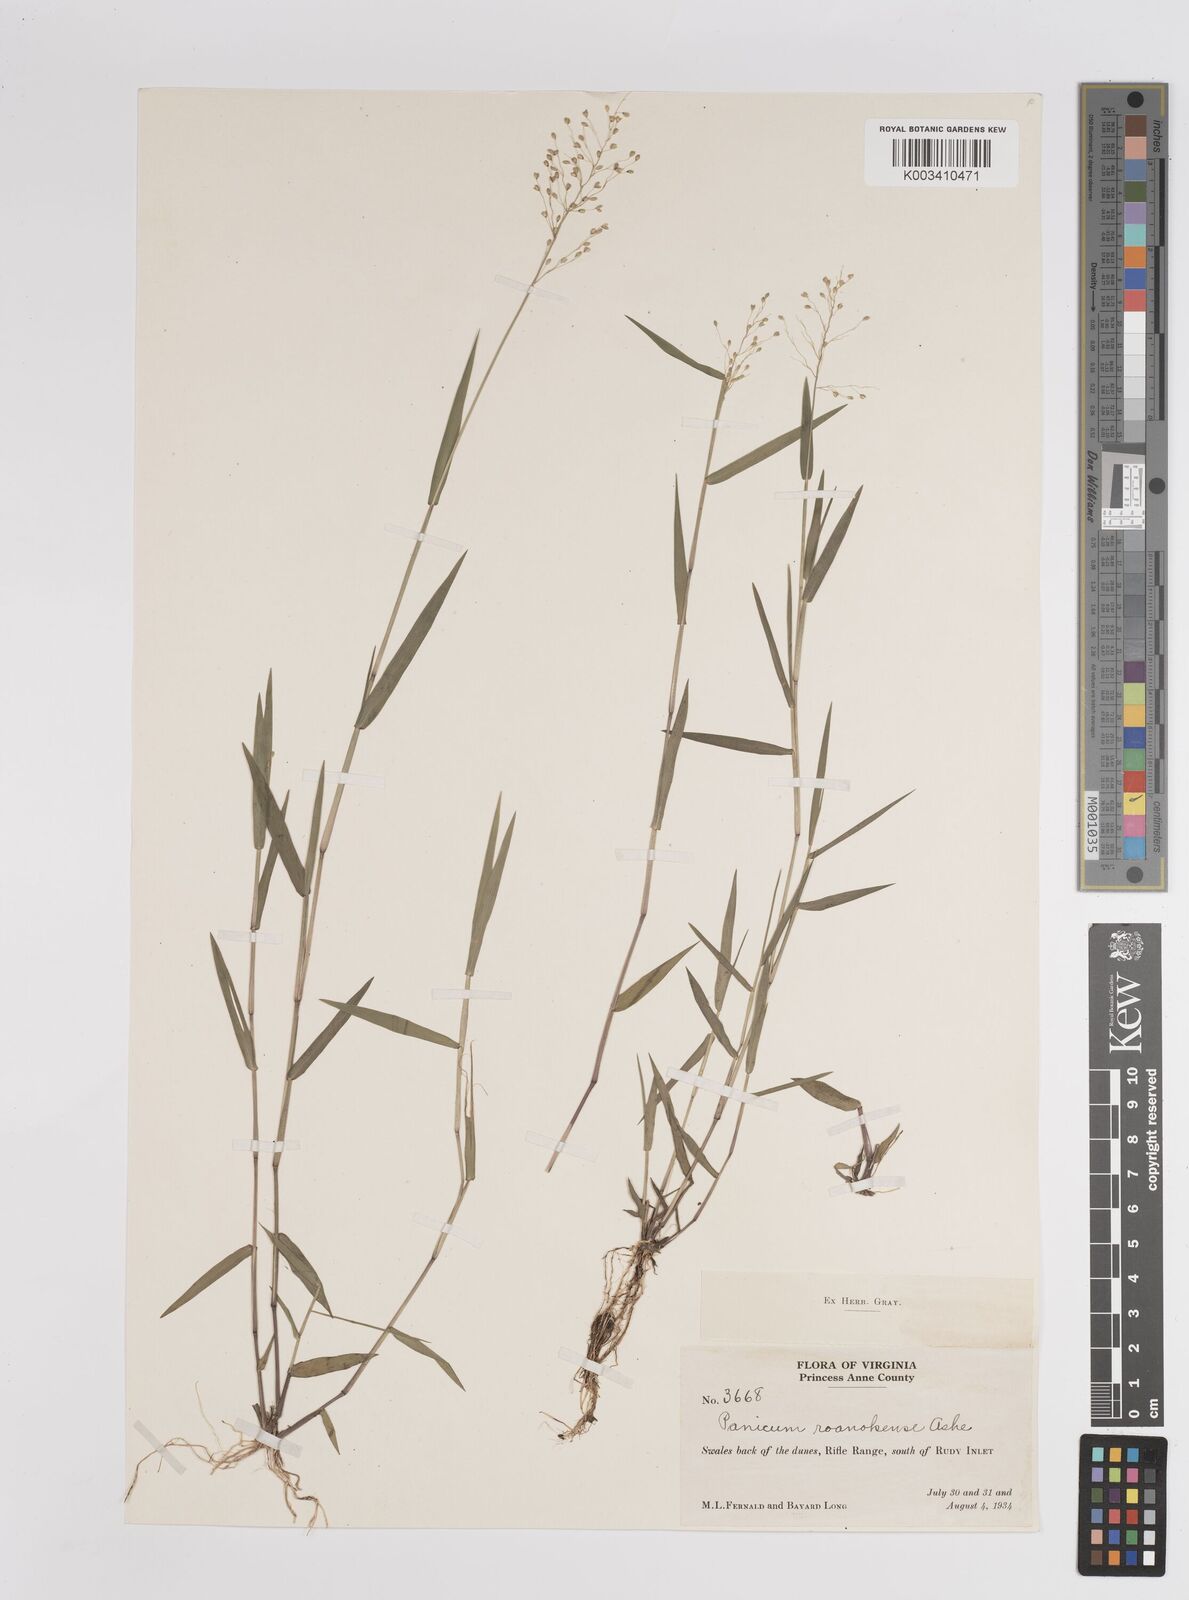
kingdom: Plantae
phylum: Tracheophyta
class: Liliopsida
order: Poales
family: Poaceae
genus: Dichanthelium
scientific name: Dichanthelium dichotomum
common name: Cypress panicgrass
